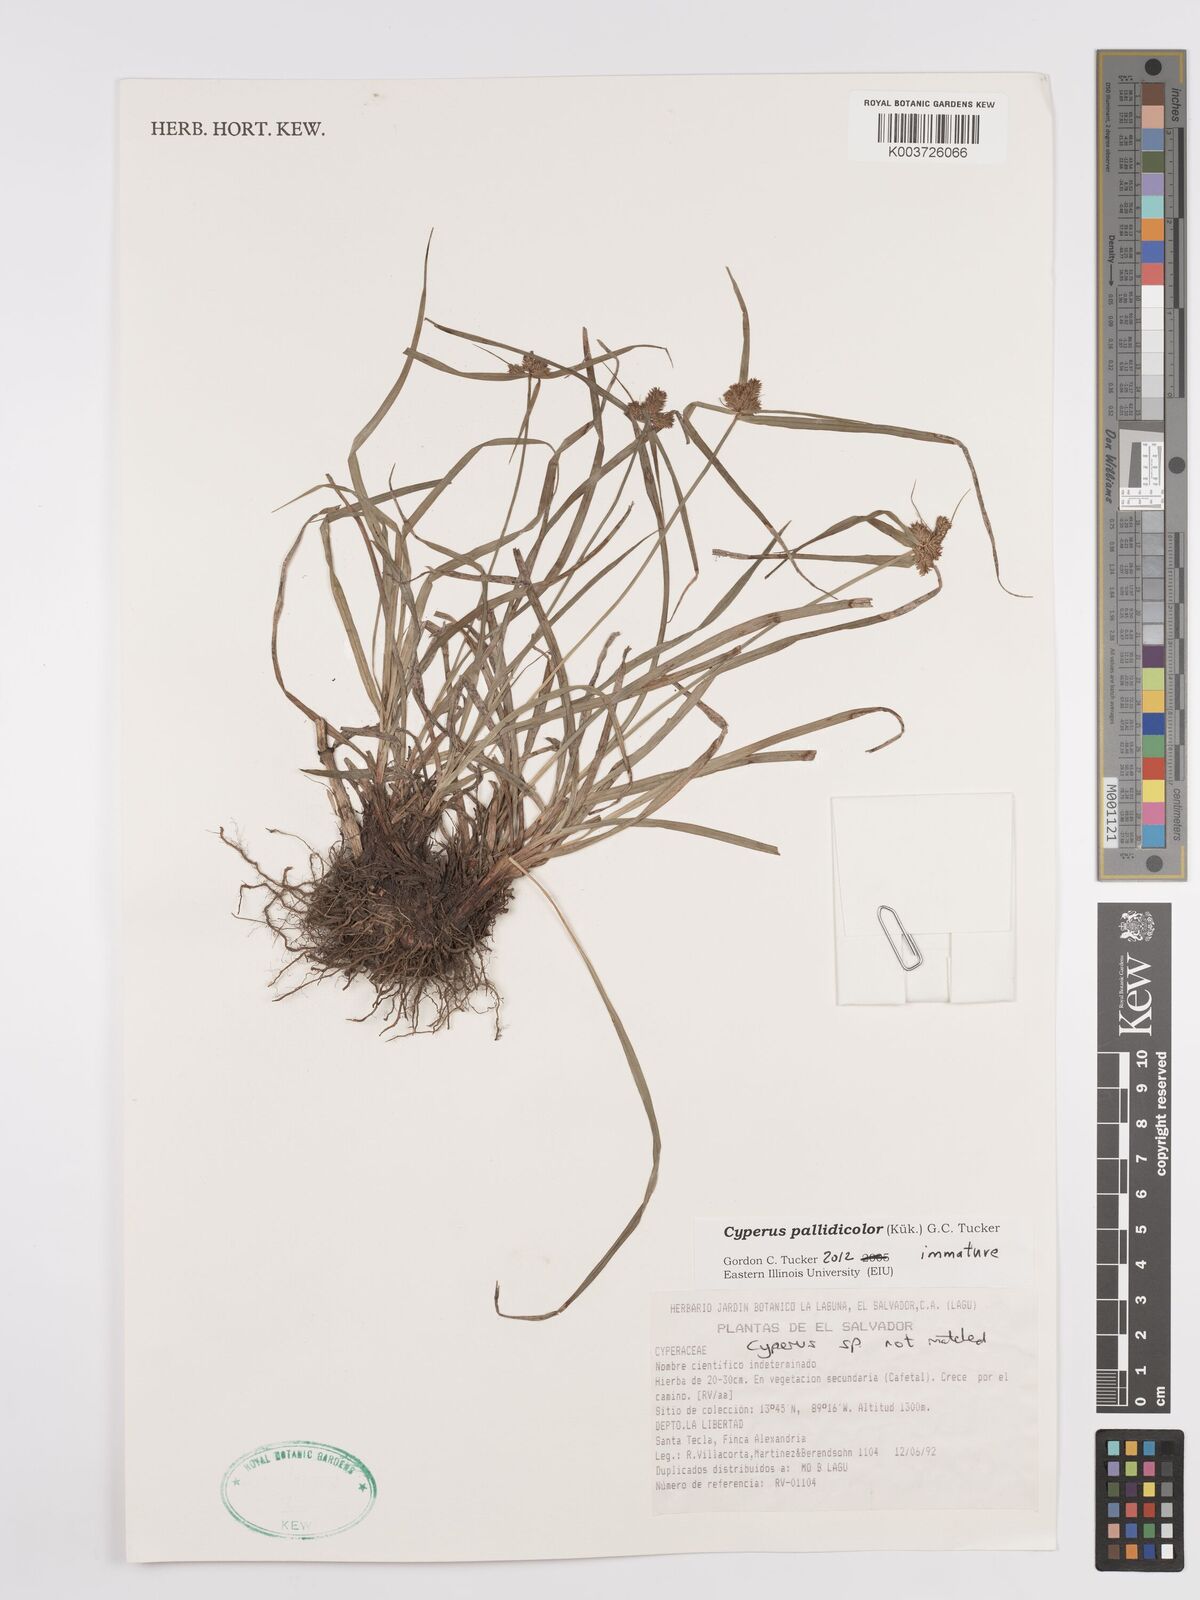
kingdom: Plantae
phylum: Tracheophyta
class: Liliopsida
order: Poales
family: Cyperaceae
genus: Cyperus
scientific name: Cyperus pallidicolor
